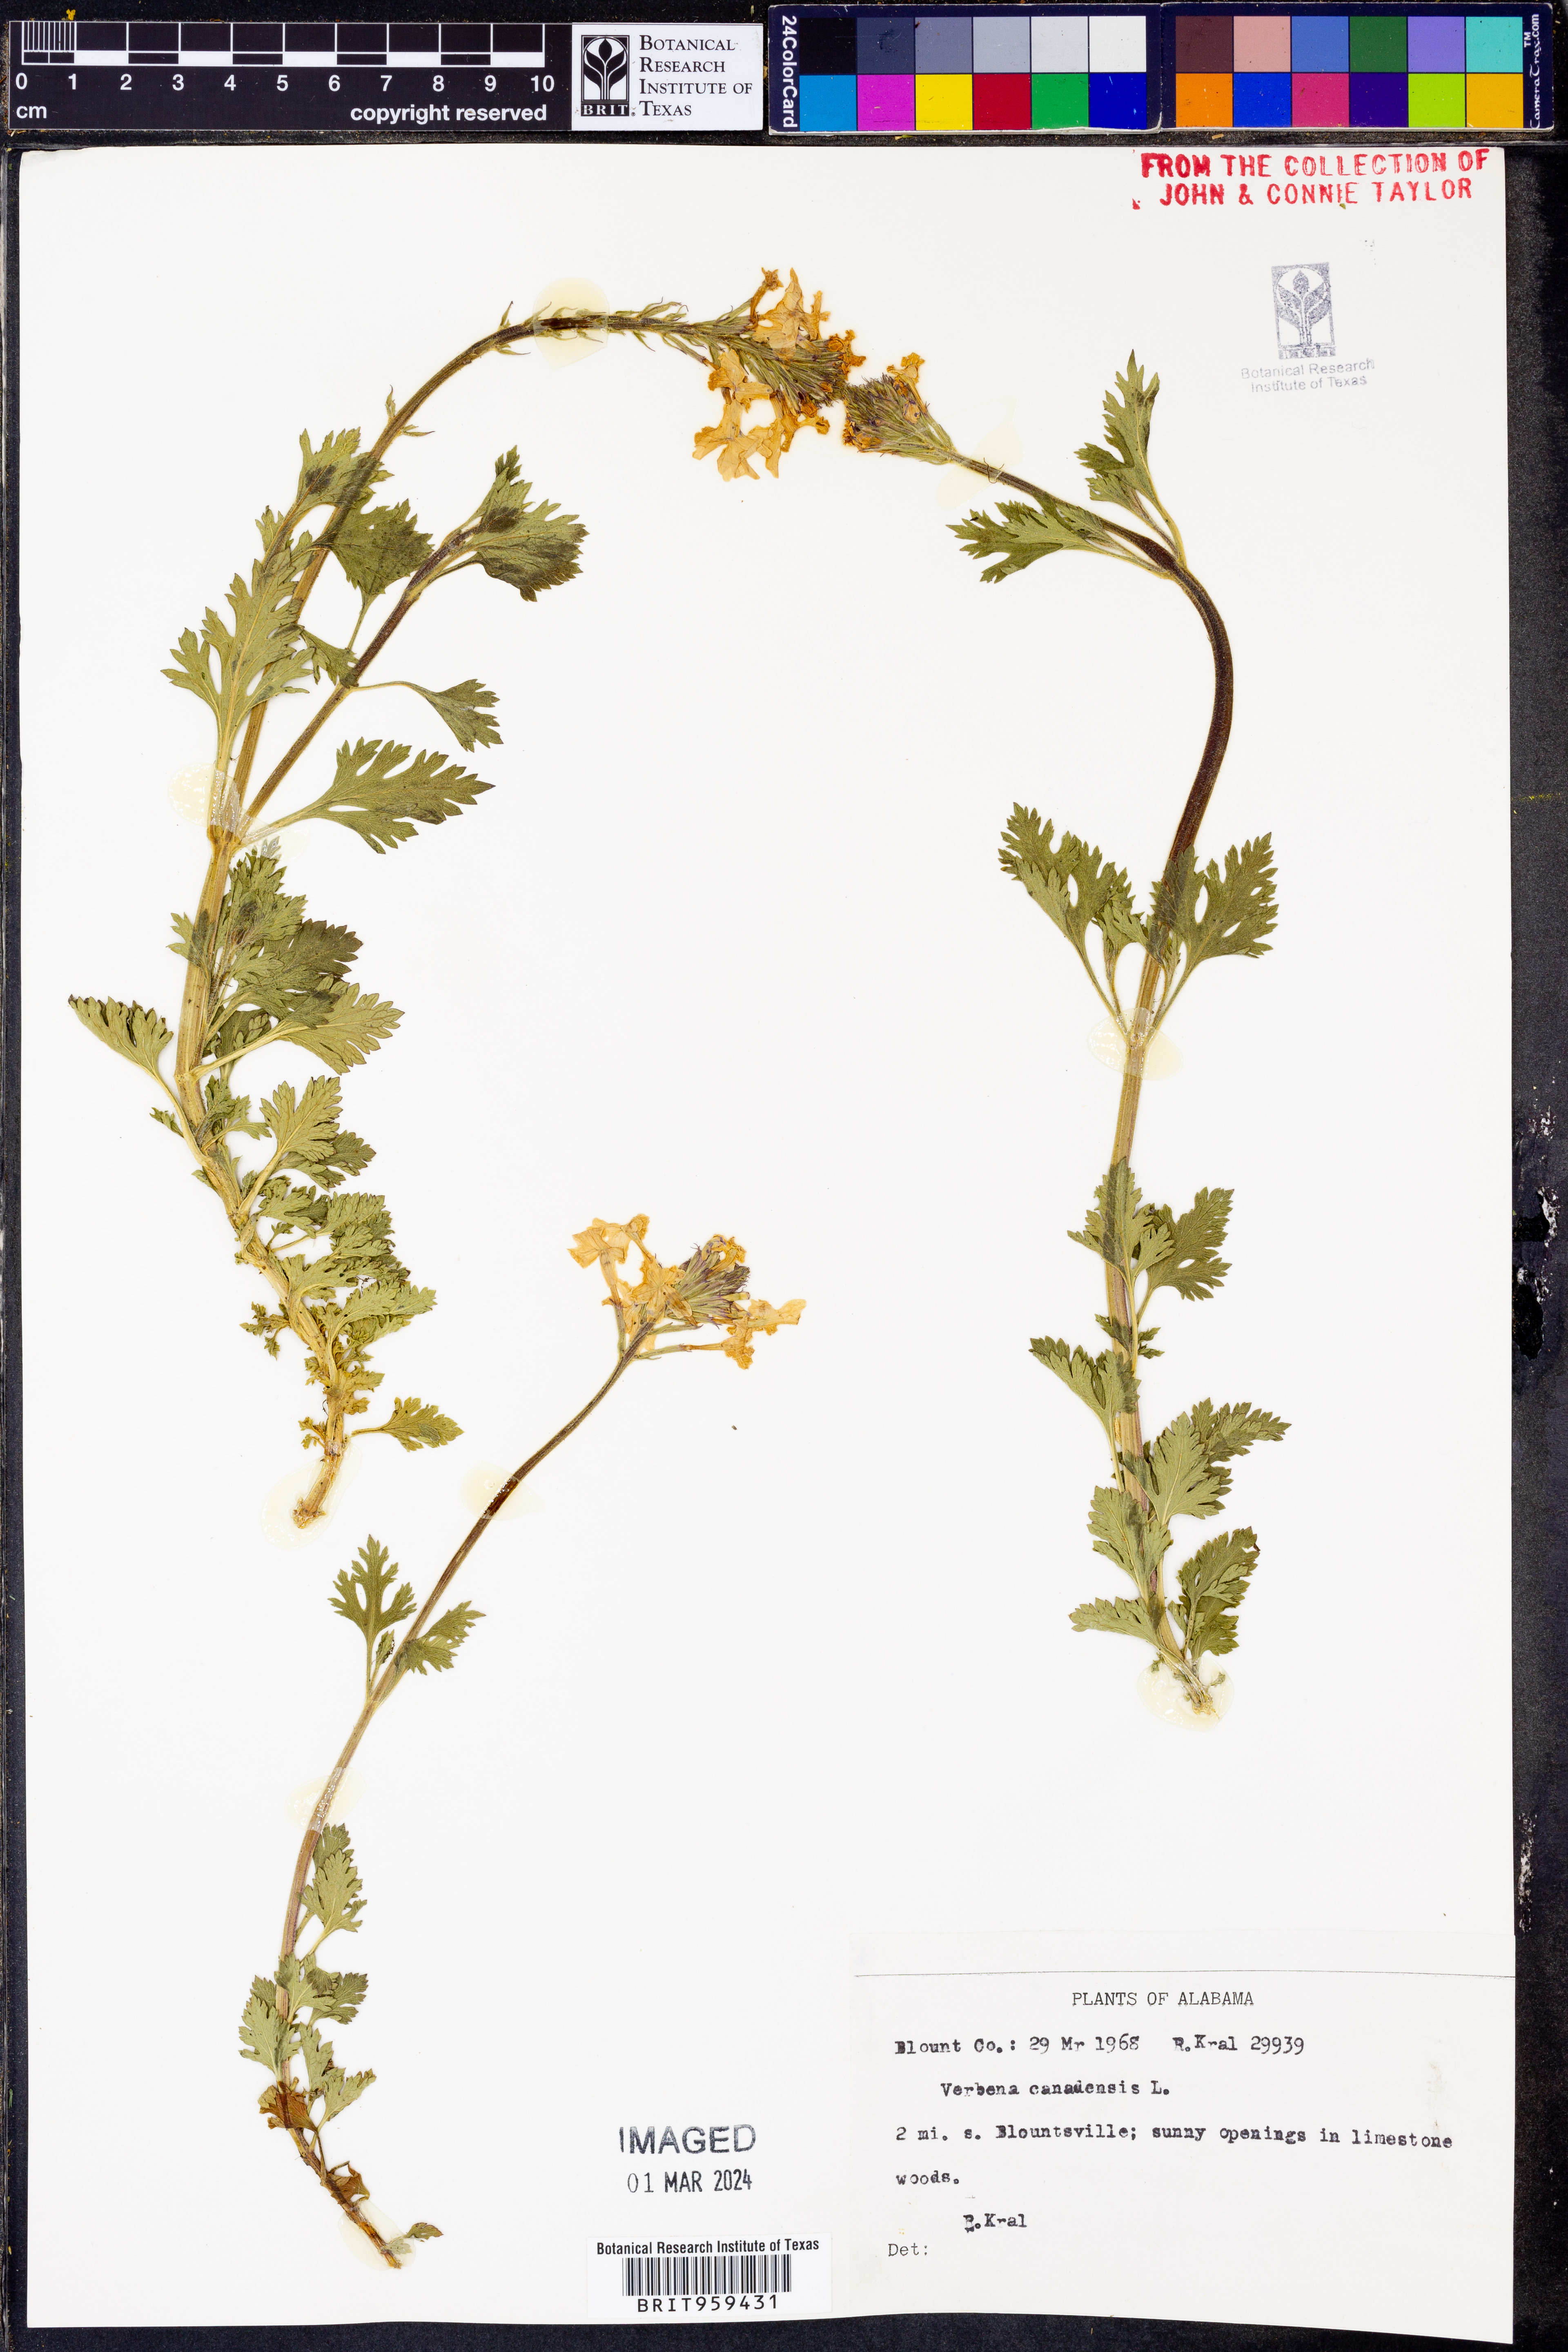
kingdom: Plantae
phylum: Tracheophyta
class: Magnoliopsida
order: Lamiales
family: Verbenaceae
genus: Verbena
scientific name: Verbena canadensis
